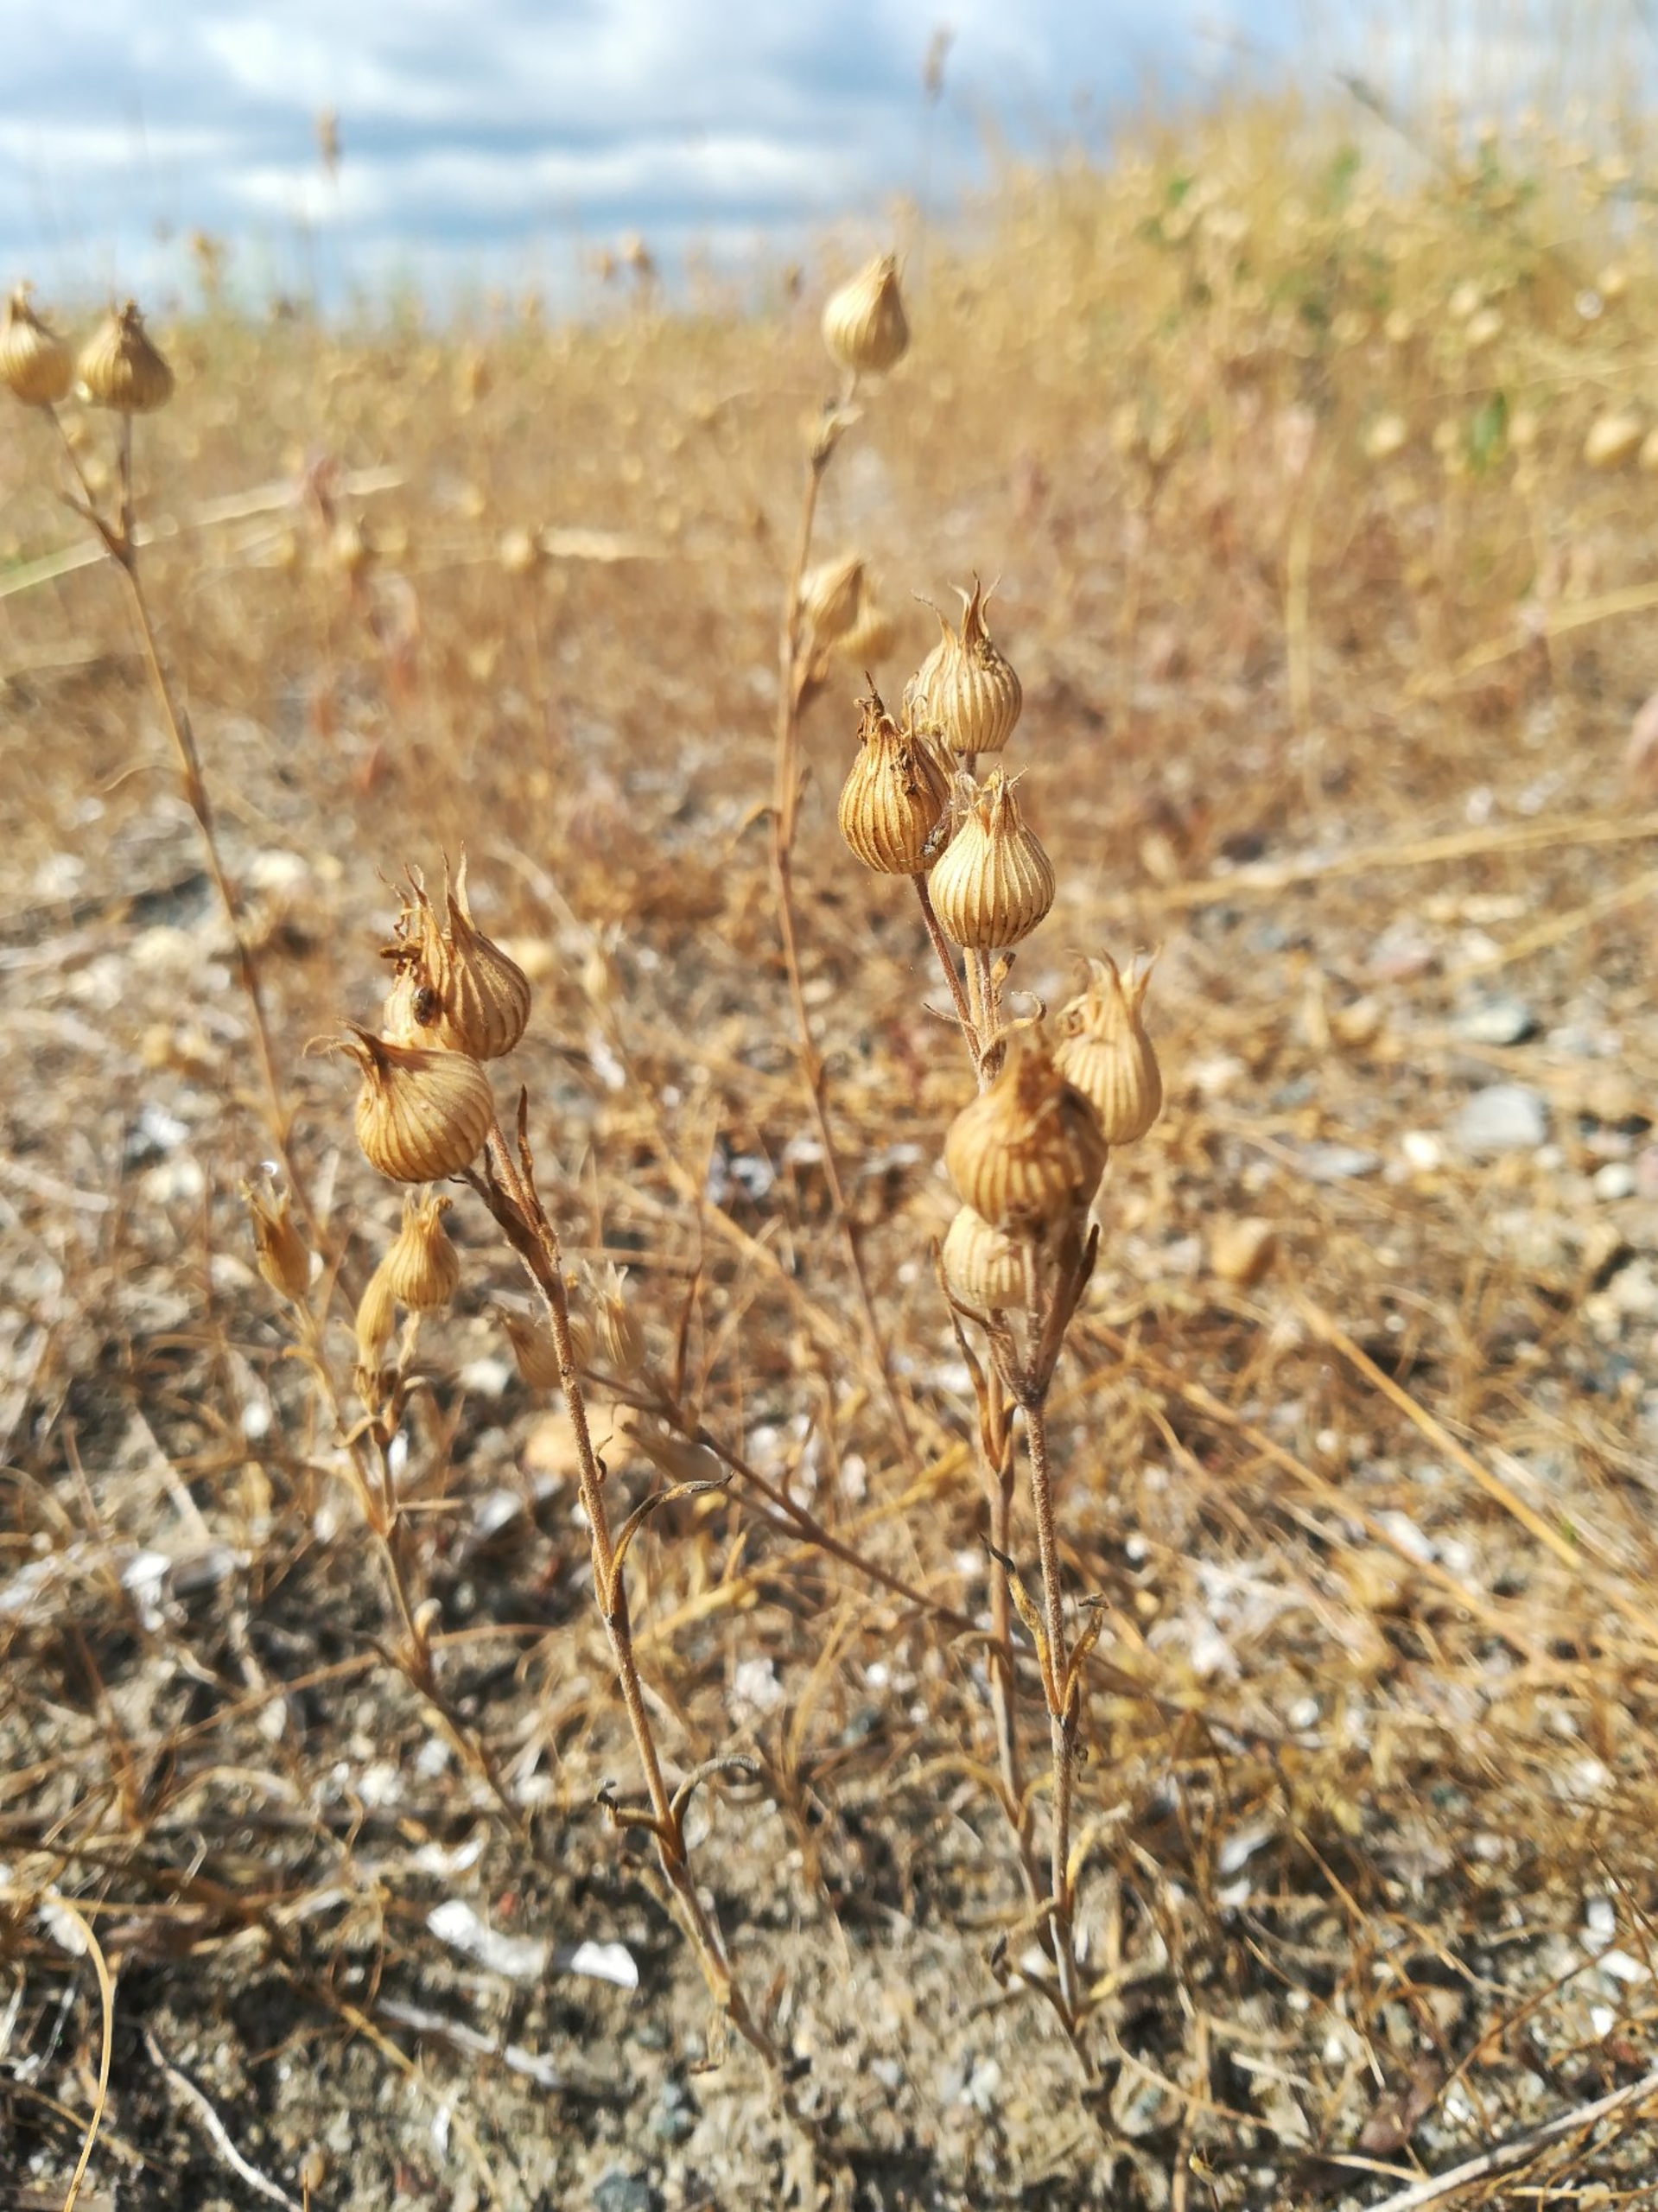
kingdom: Plantae
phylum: Tracheophyta
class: Magnoliopsida
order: Caryophyllales
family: Caryophyllaceae
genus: Silene
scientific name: Silene conica
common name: Kegle-limurt
